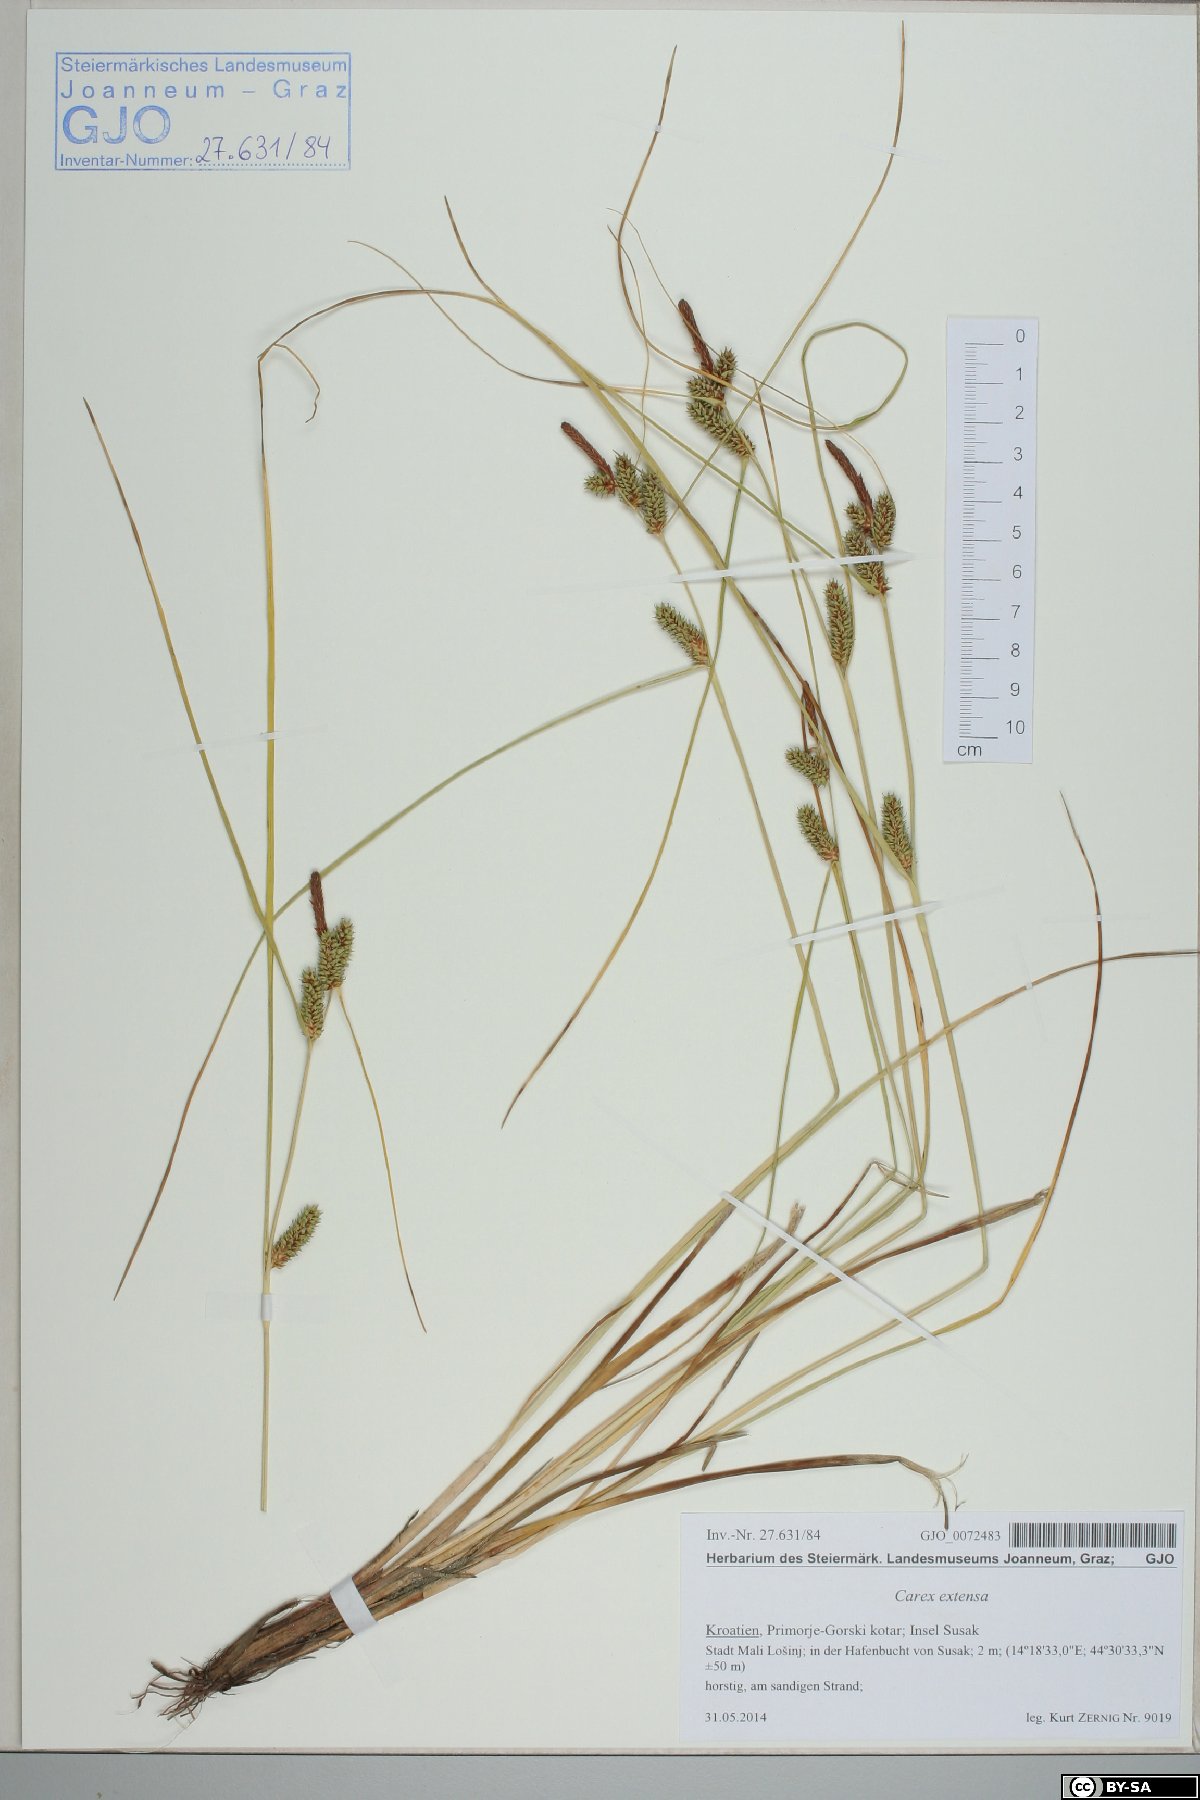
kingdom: Plantae
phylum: Tracheophyta
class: Liliopsida
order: Poales
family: Cyperaceae
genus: Carex
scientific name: Carex extensa
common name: Long-bracted sedge
